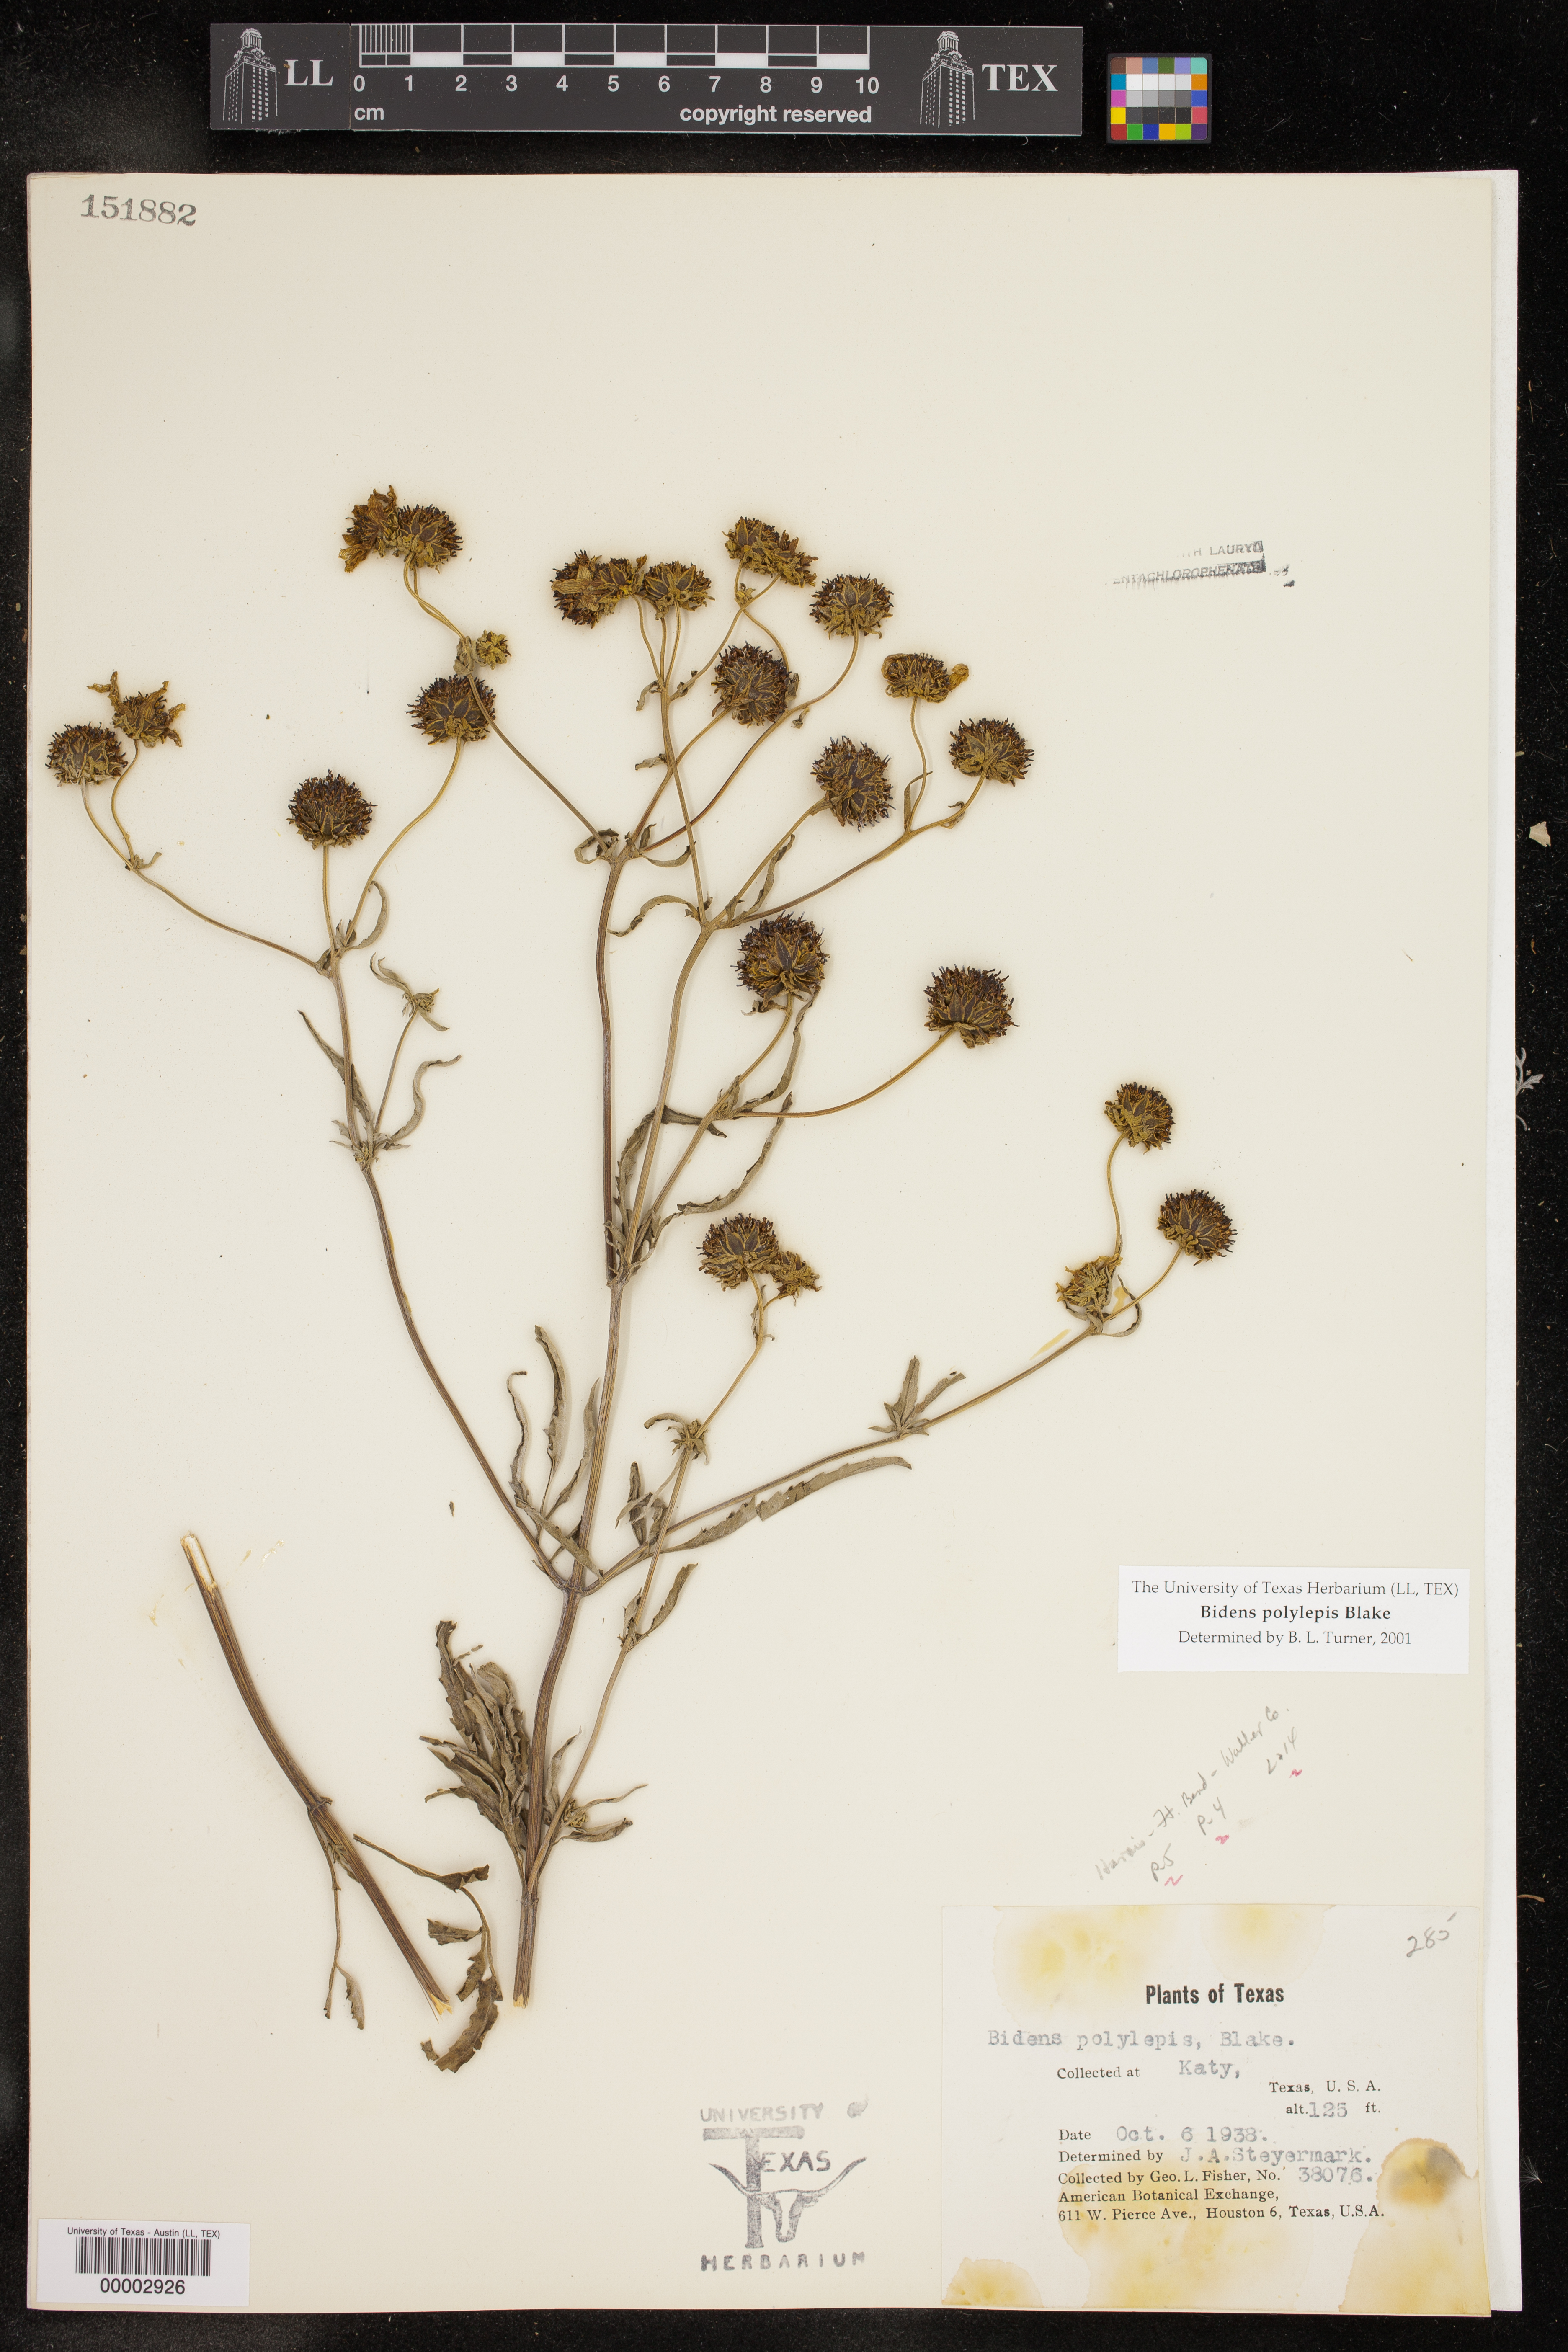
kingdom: Plantae
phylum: Tracheophyta
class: Magnoliopsida
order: Asterales
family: Asteraceae
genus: Bidens
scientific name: Bidens polylepis
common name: Awnless beggarticks
